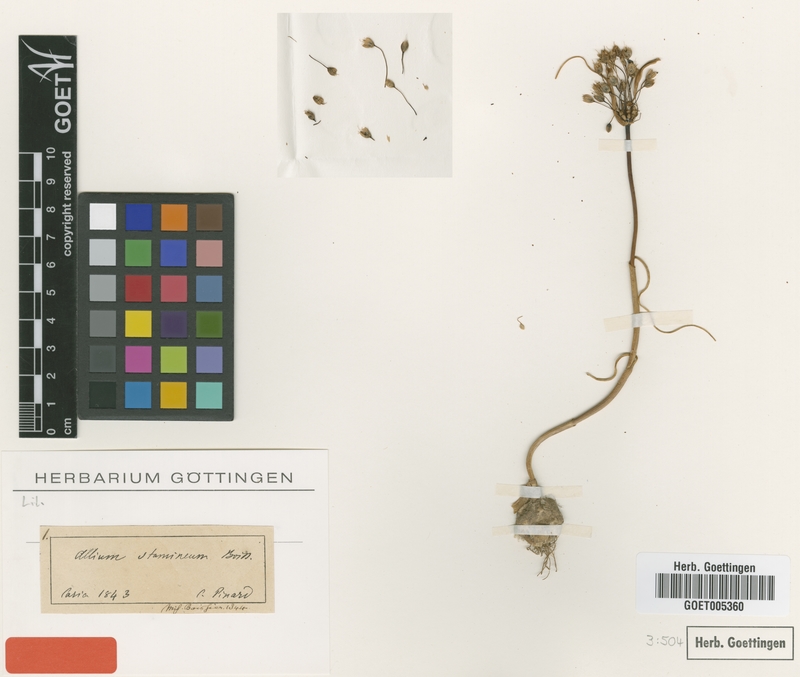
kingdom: Plantae
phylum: Tracheophyta
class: Liliopsida
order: Asparagales
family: Amaryllidaceae
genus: Allium
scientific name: Allium stamineum
